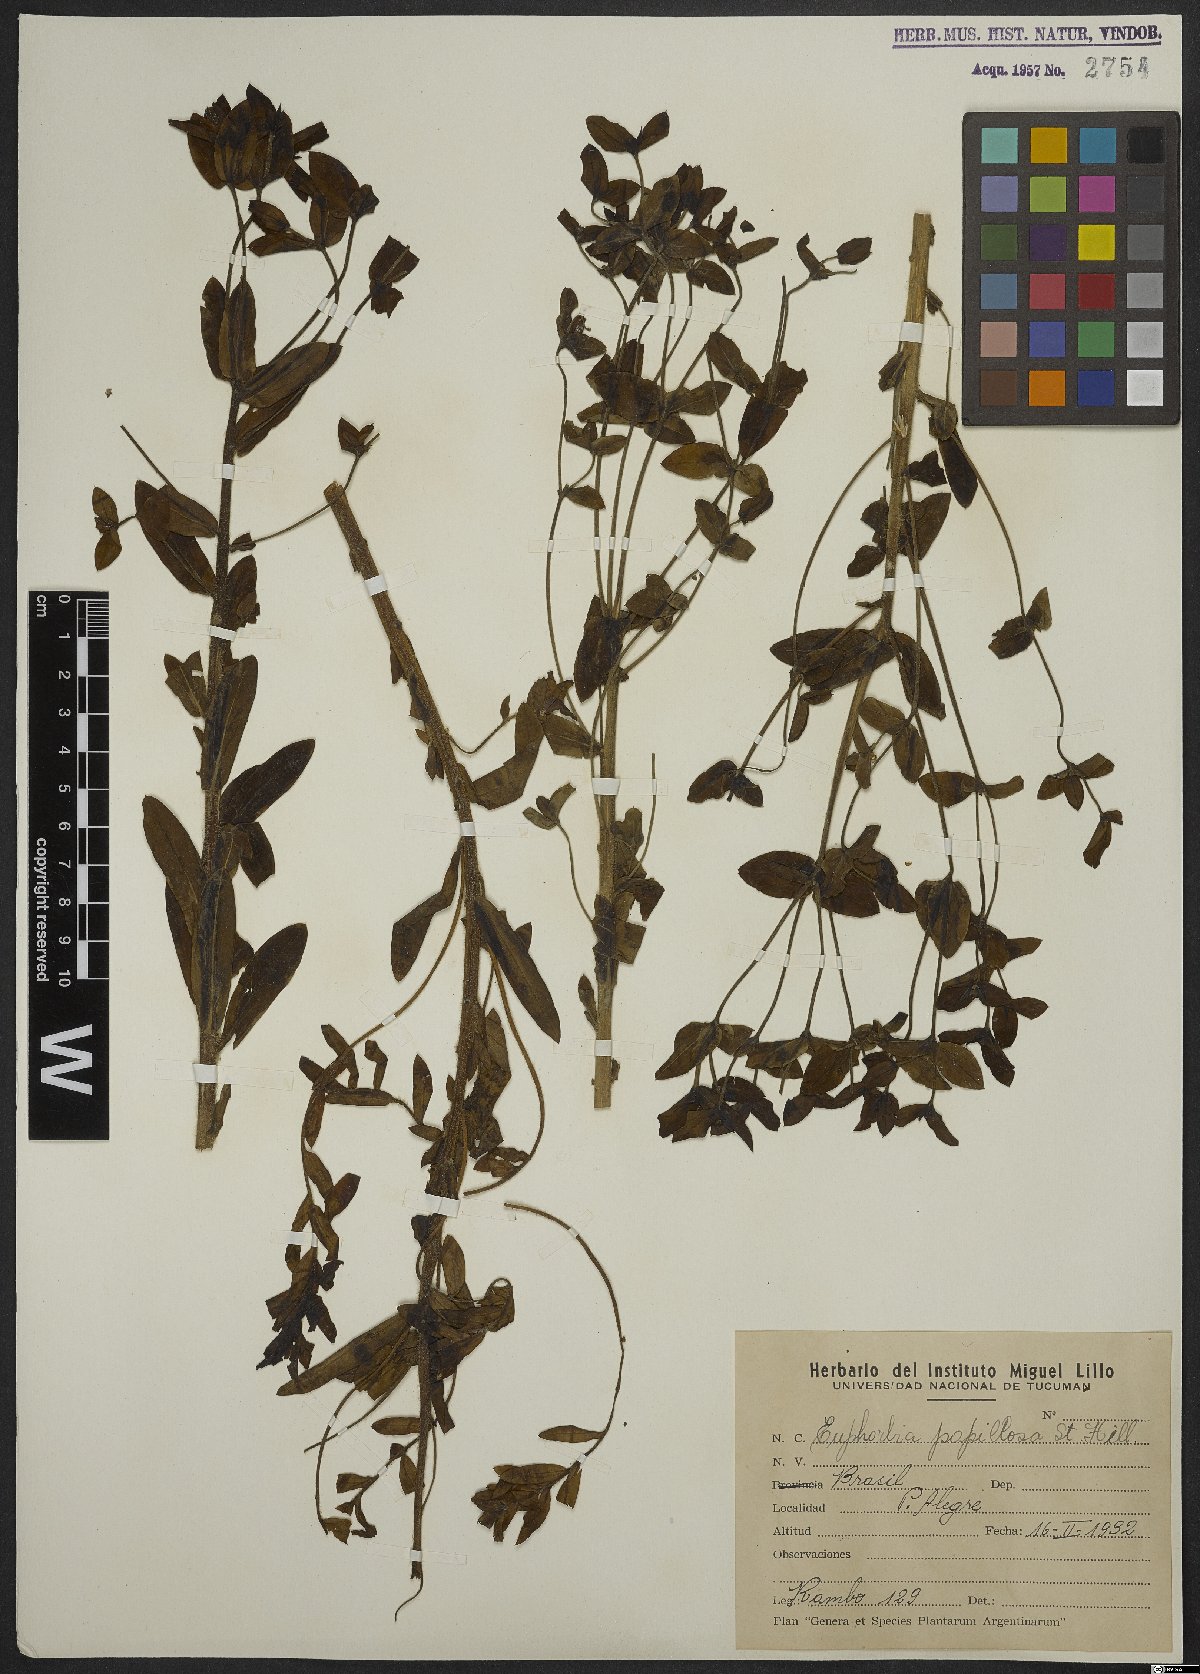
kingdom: Plantae
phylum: Tracheophyta
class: Magnoliopsida
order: Malpighiales
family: Euphorbiaceae
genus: Euphorbia
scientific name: Euphorbia papillosa
